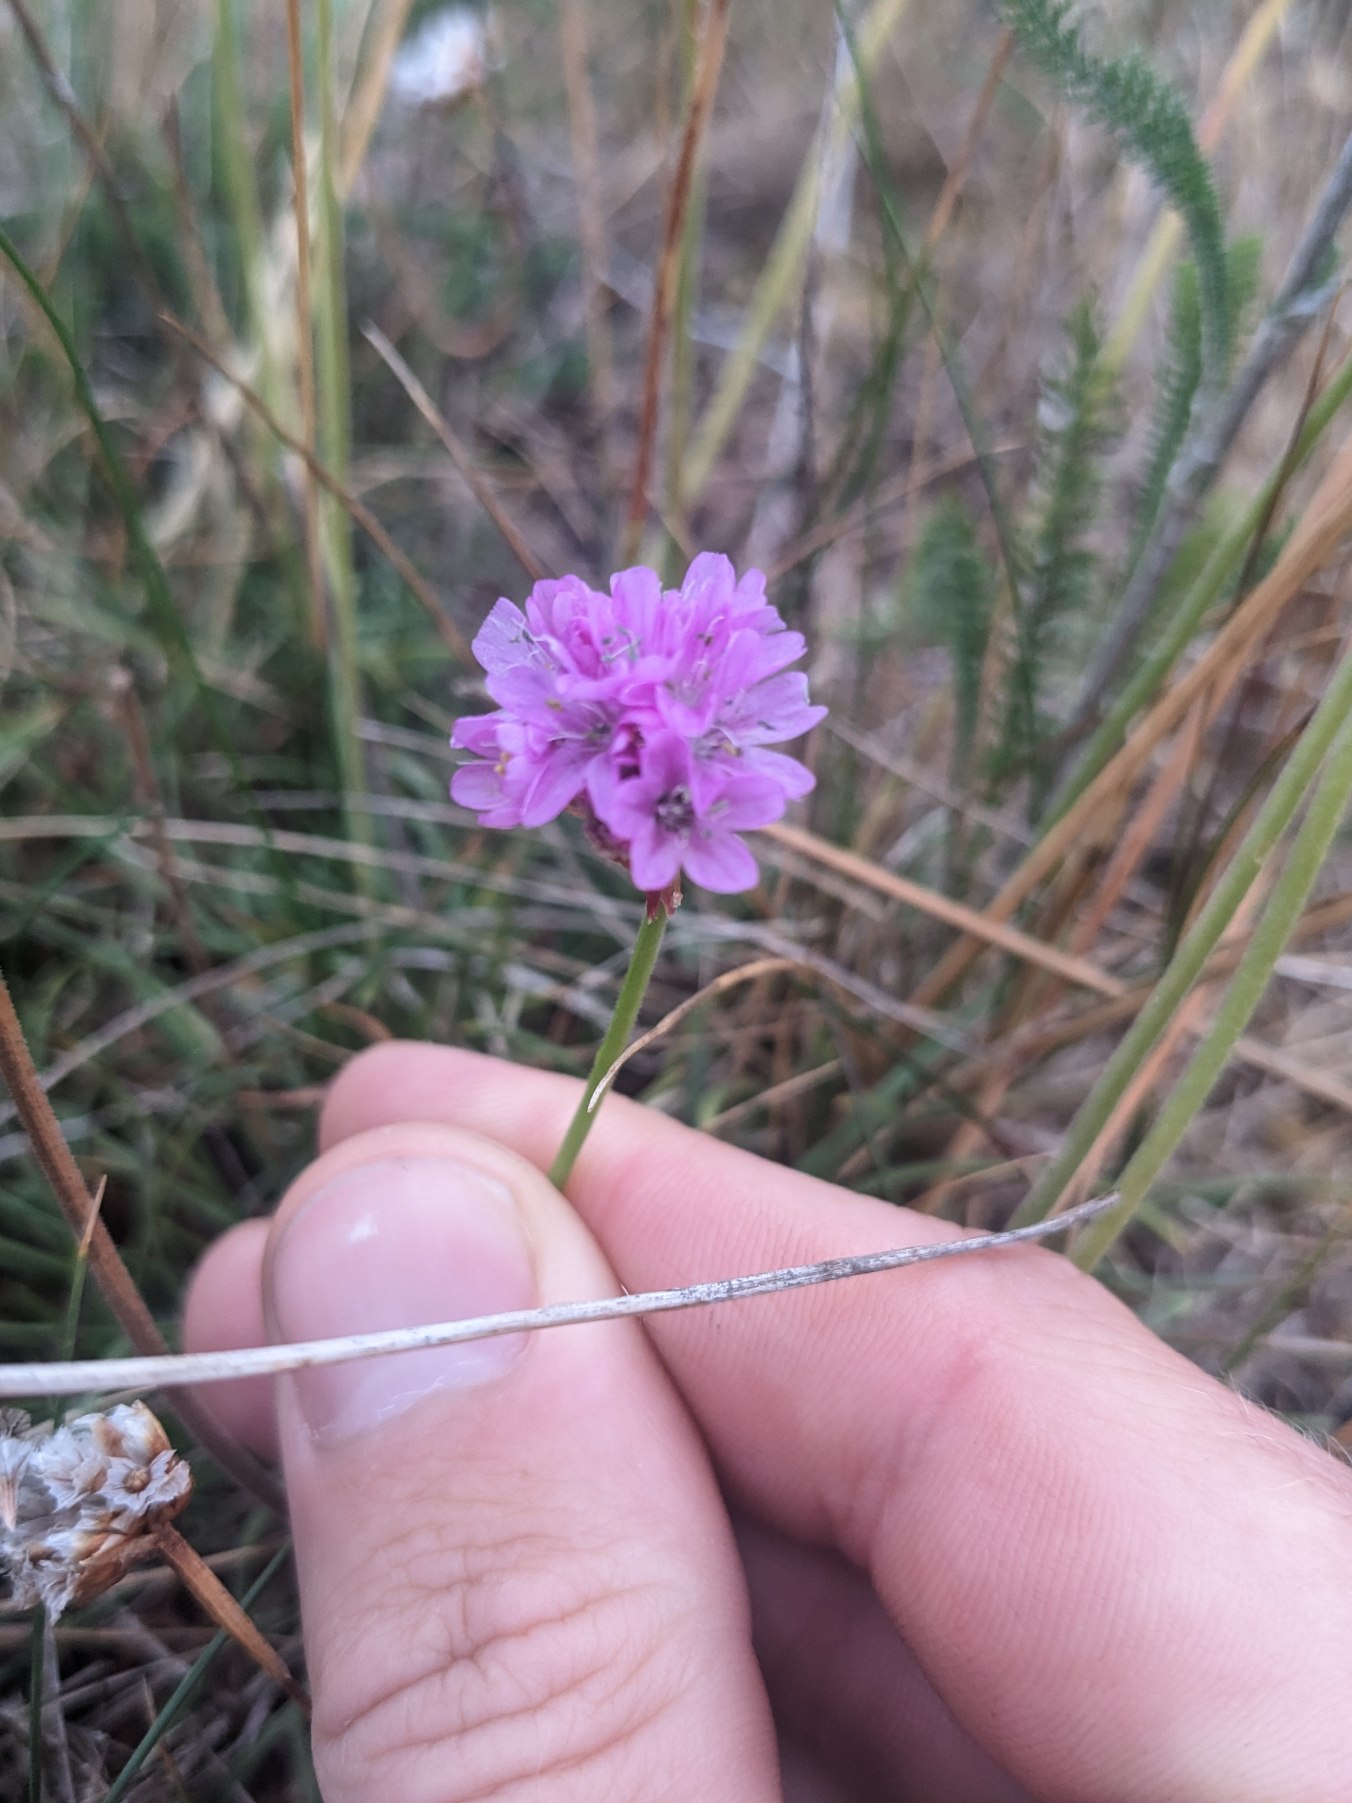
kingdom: Plantae
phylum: Tracheophyta
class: Magnoliopsida
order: Caryophyllales
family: Plumbaginaceae
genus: Armeria
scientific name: Armeria maritima
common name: Engelskgræs
